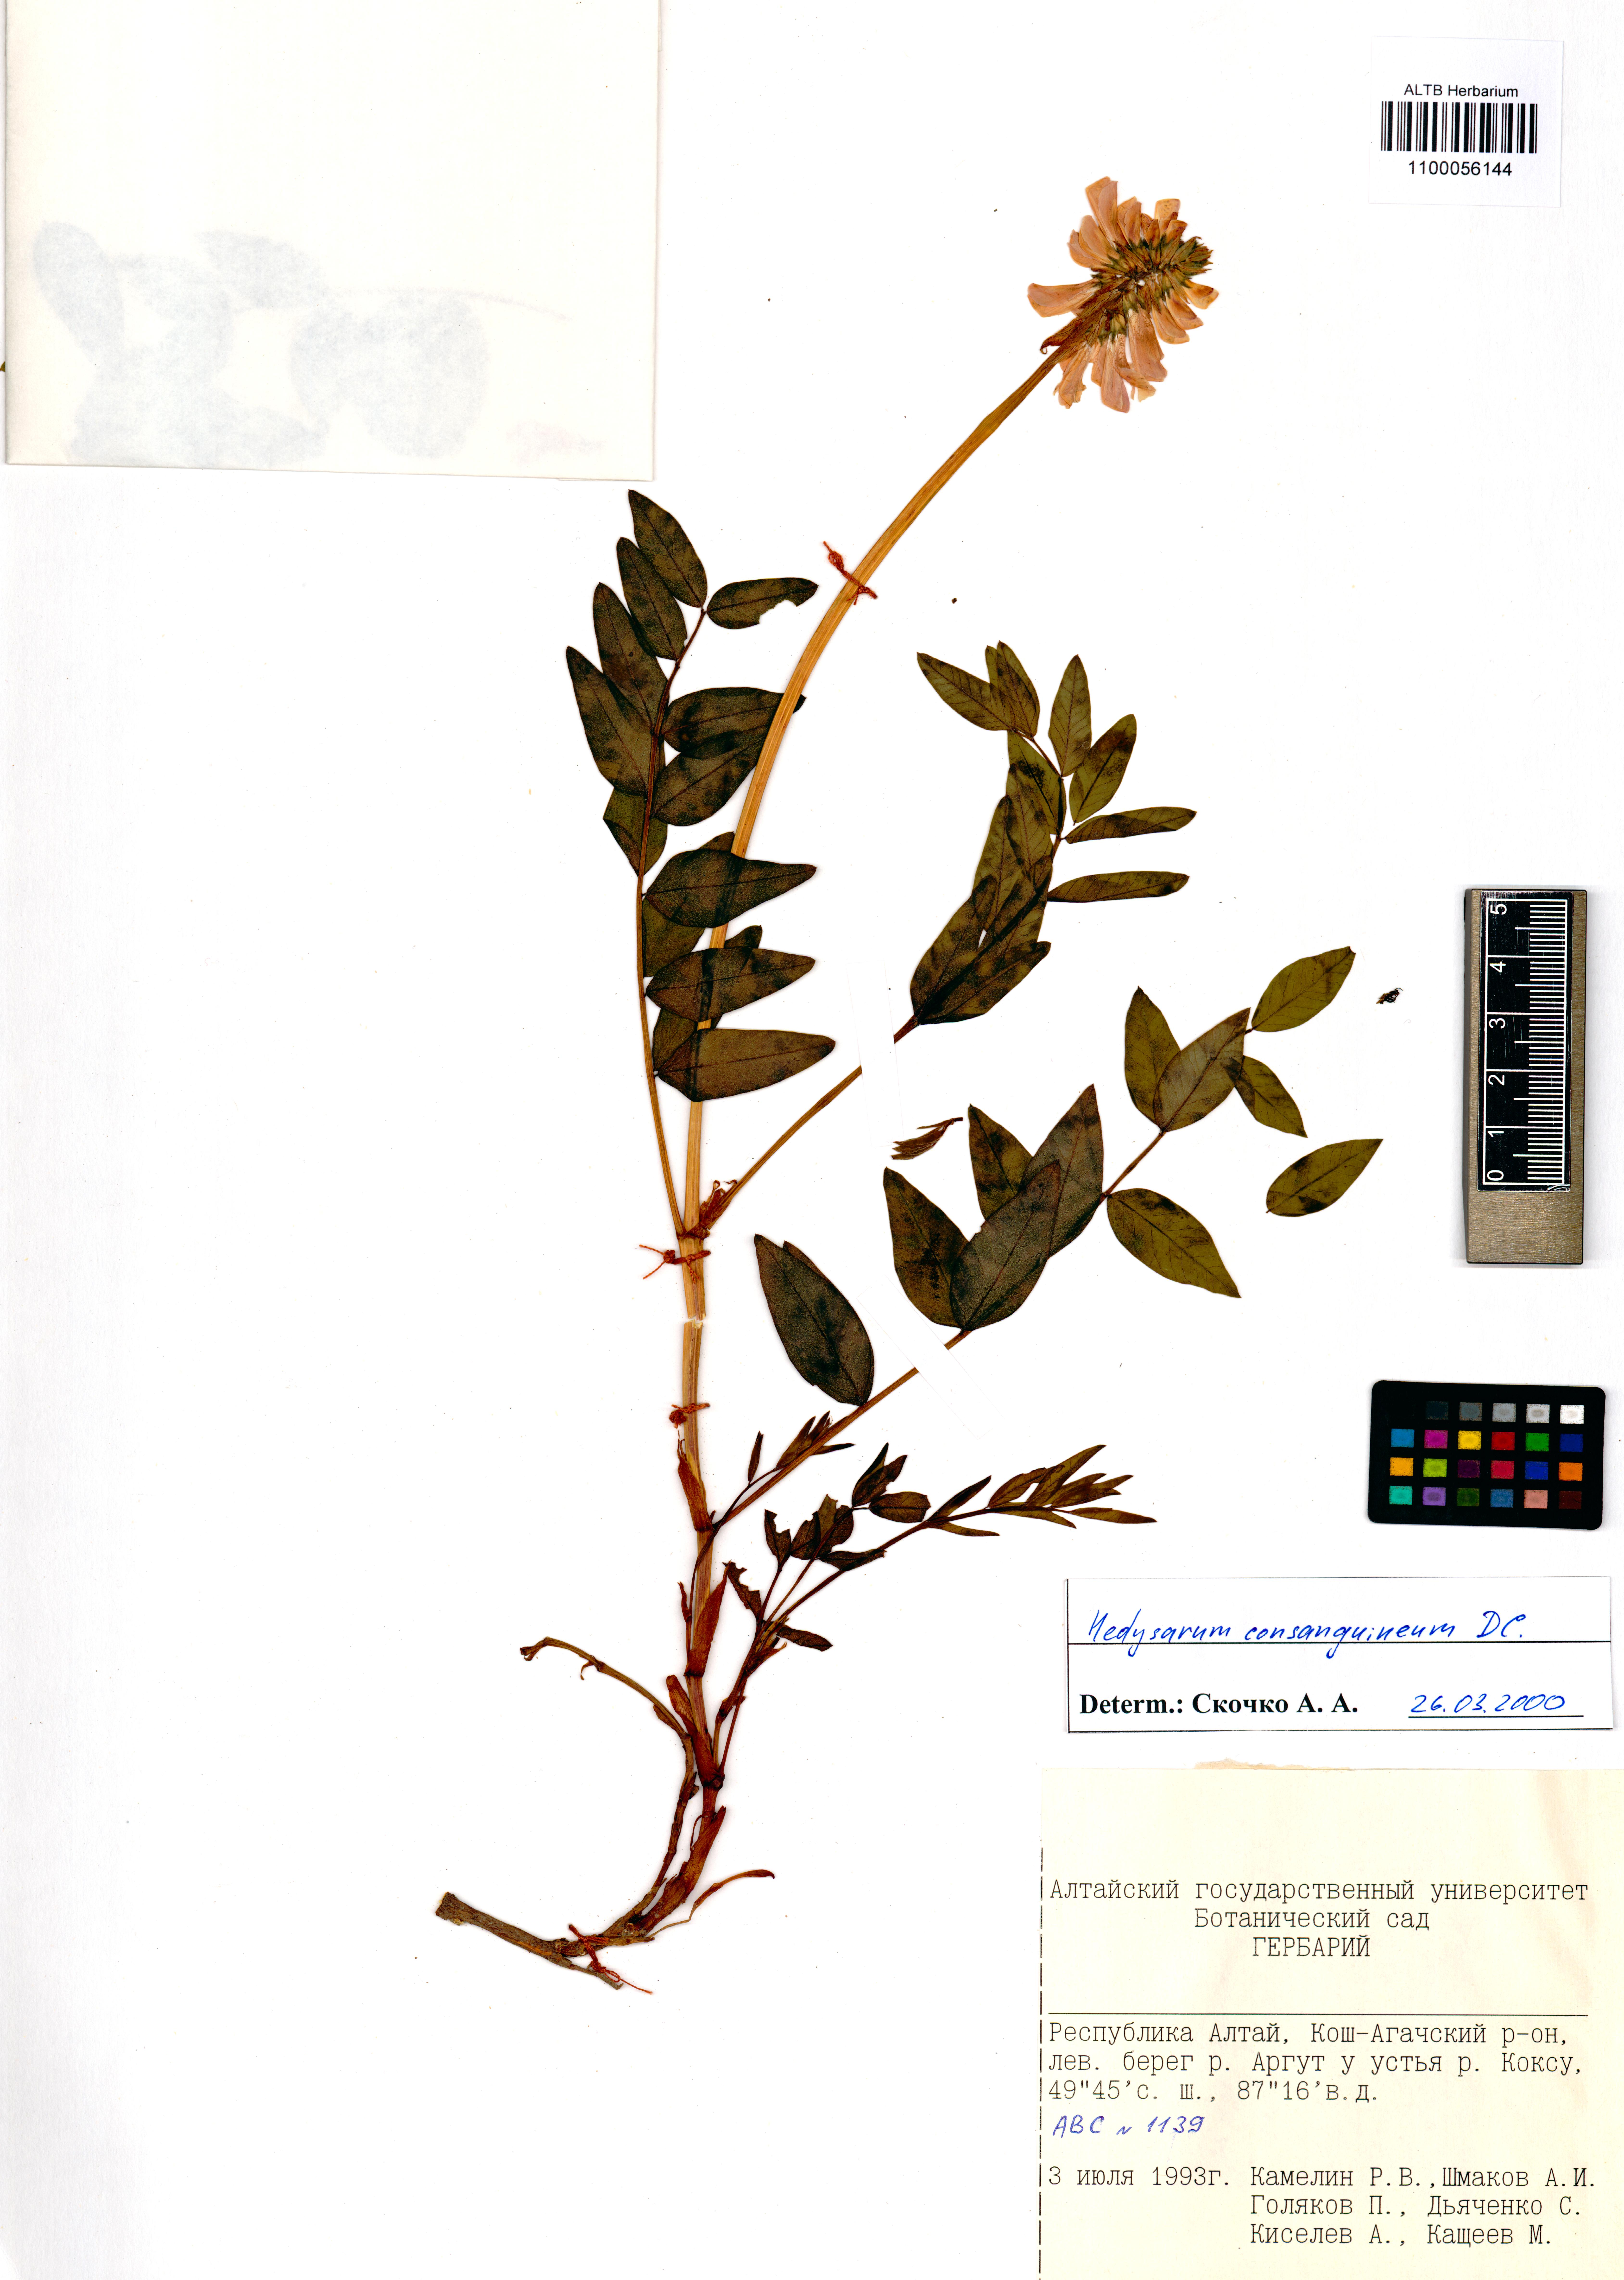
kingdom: Plantae
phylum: Tracheophyta
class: Magnoliopsida
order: Fabales
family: Fabaceae
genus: Hedysarum
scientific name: Hedysarum consanguineum
